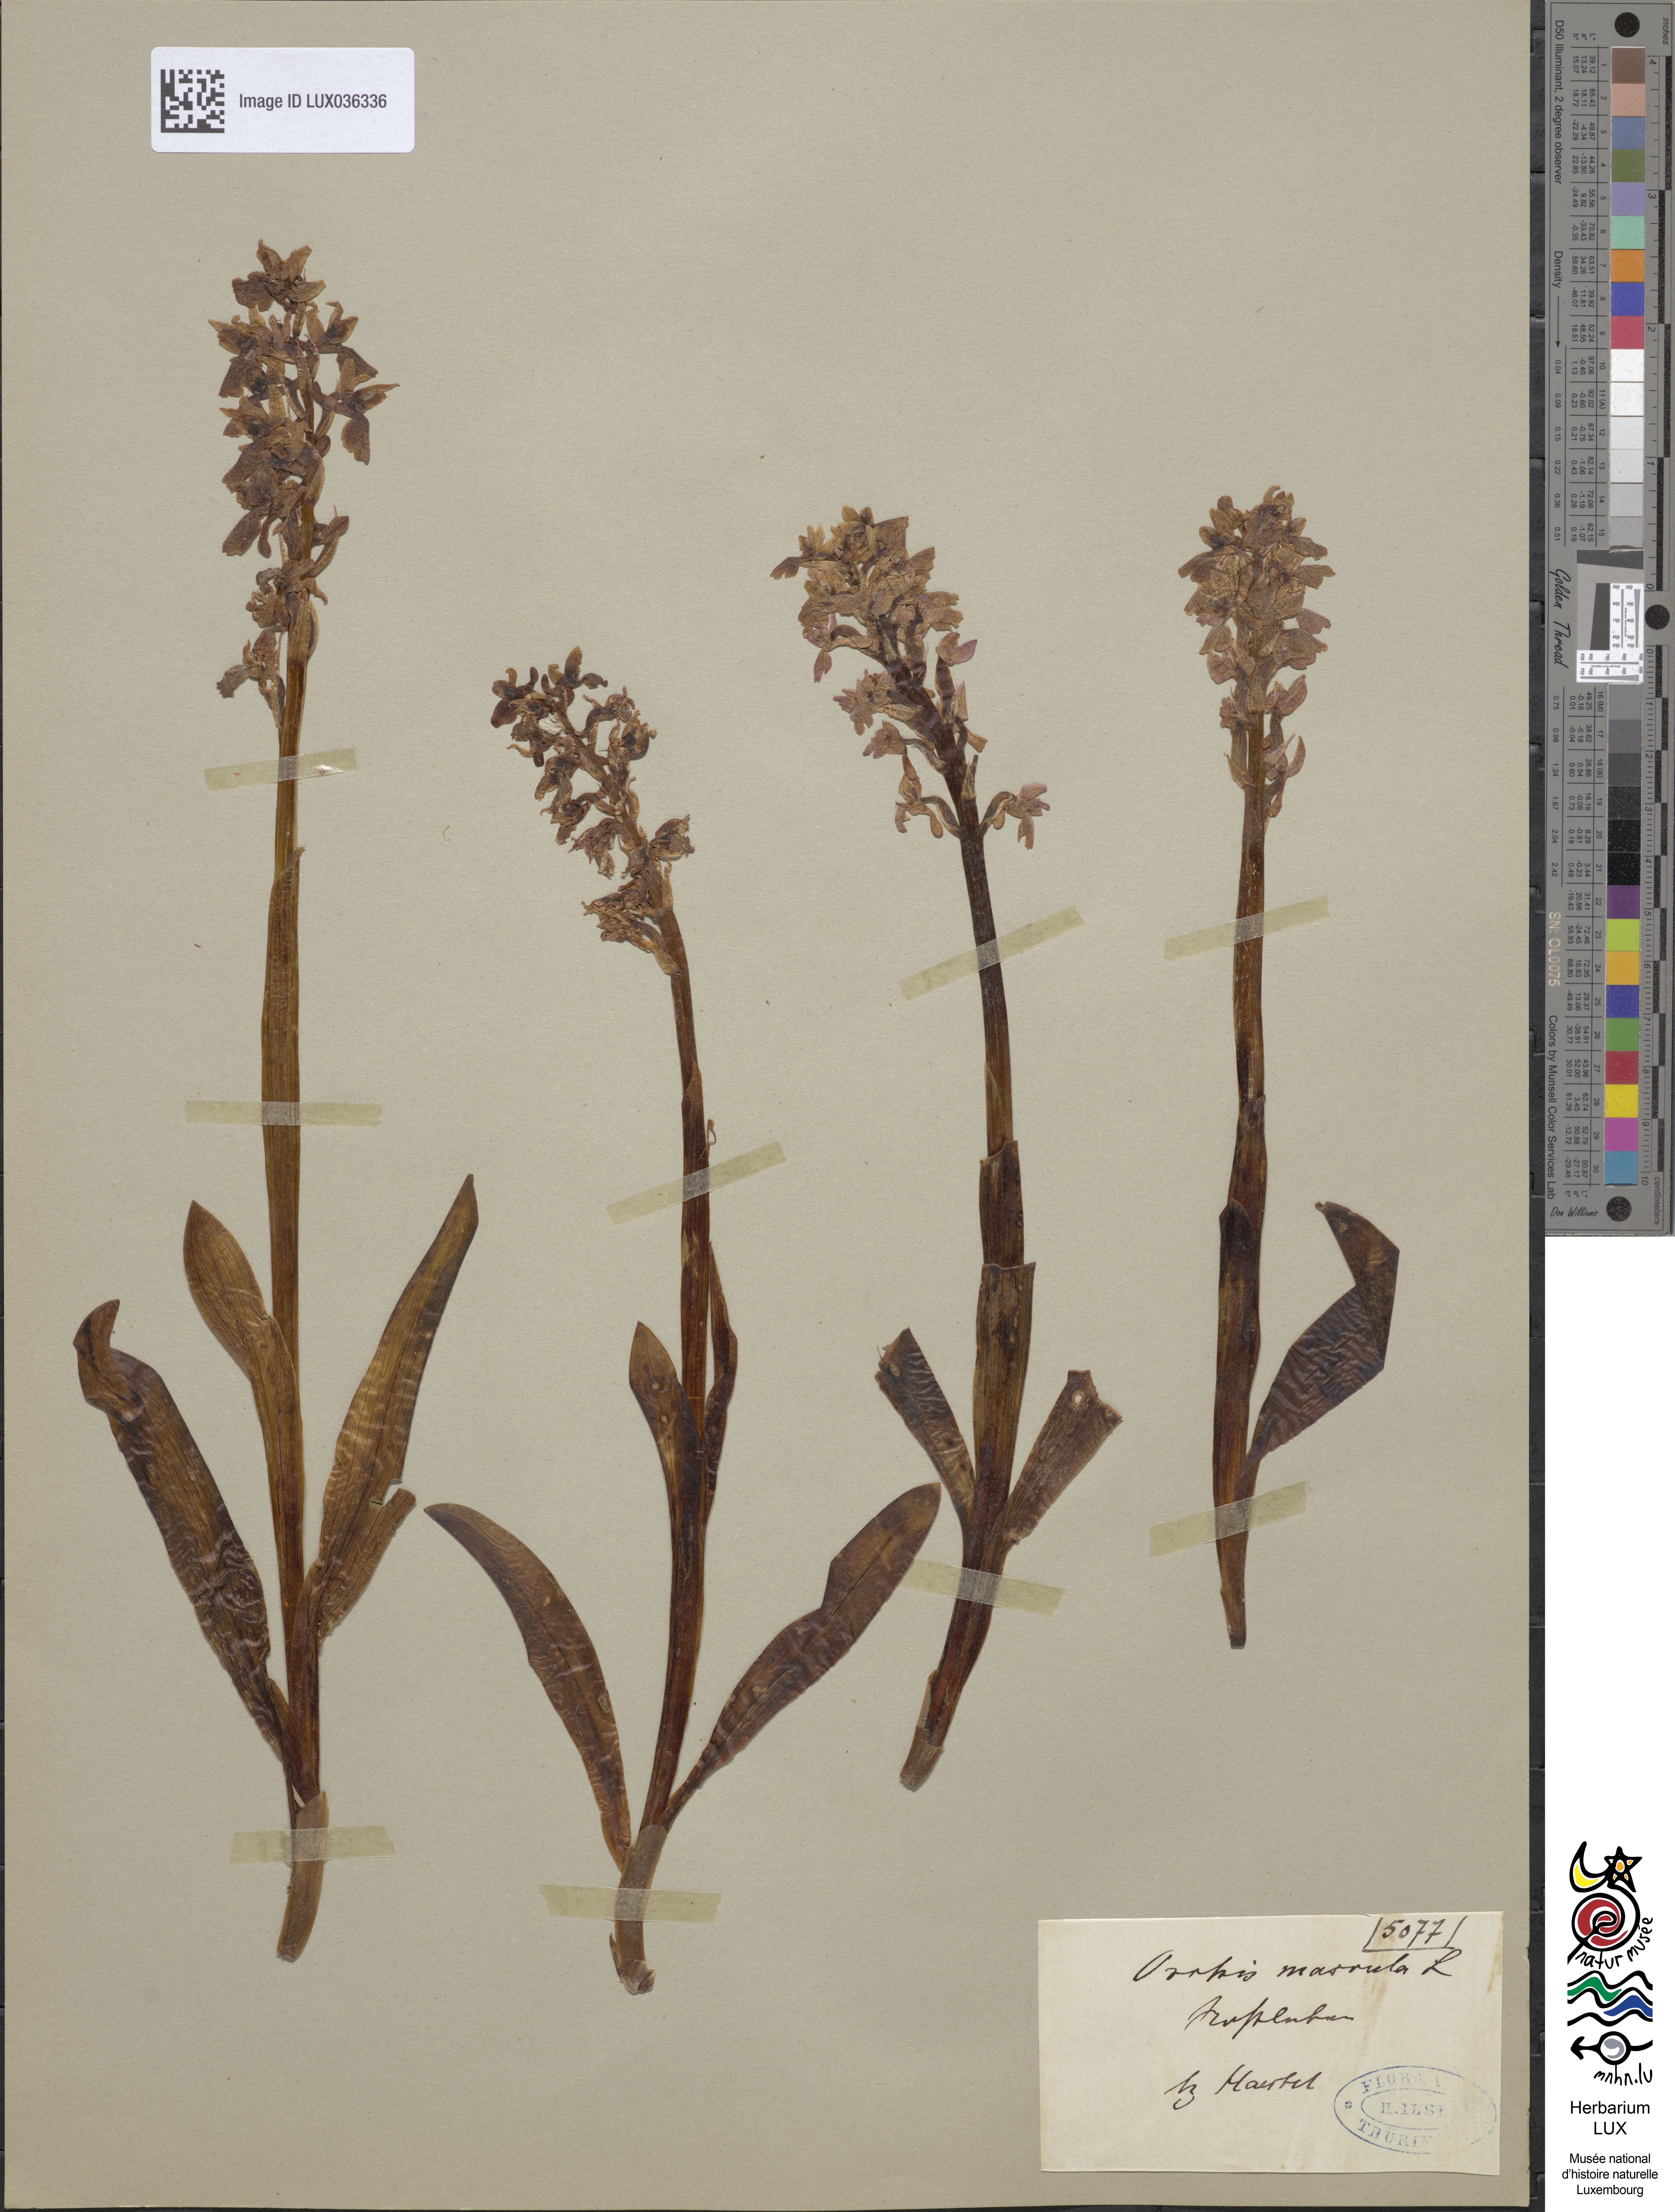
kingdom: Plantae
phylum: Tracheophyta
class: Liliopsida
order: Asparagales
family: Orchidaceae
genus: Orchis
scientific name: Orchis mascula
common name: Early-purple orchid
